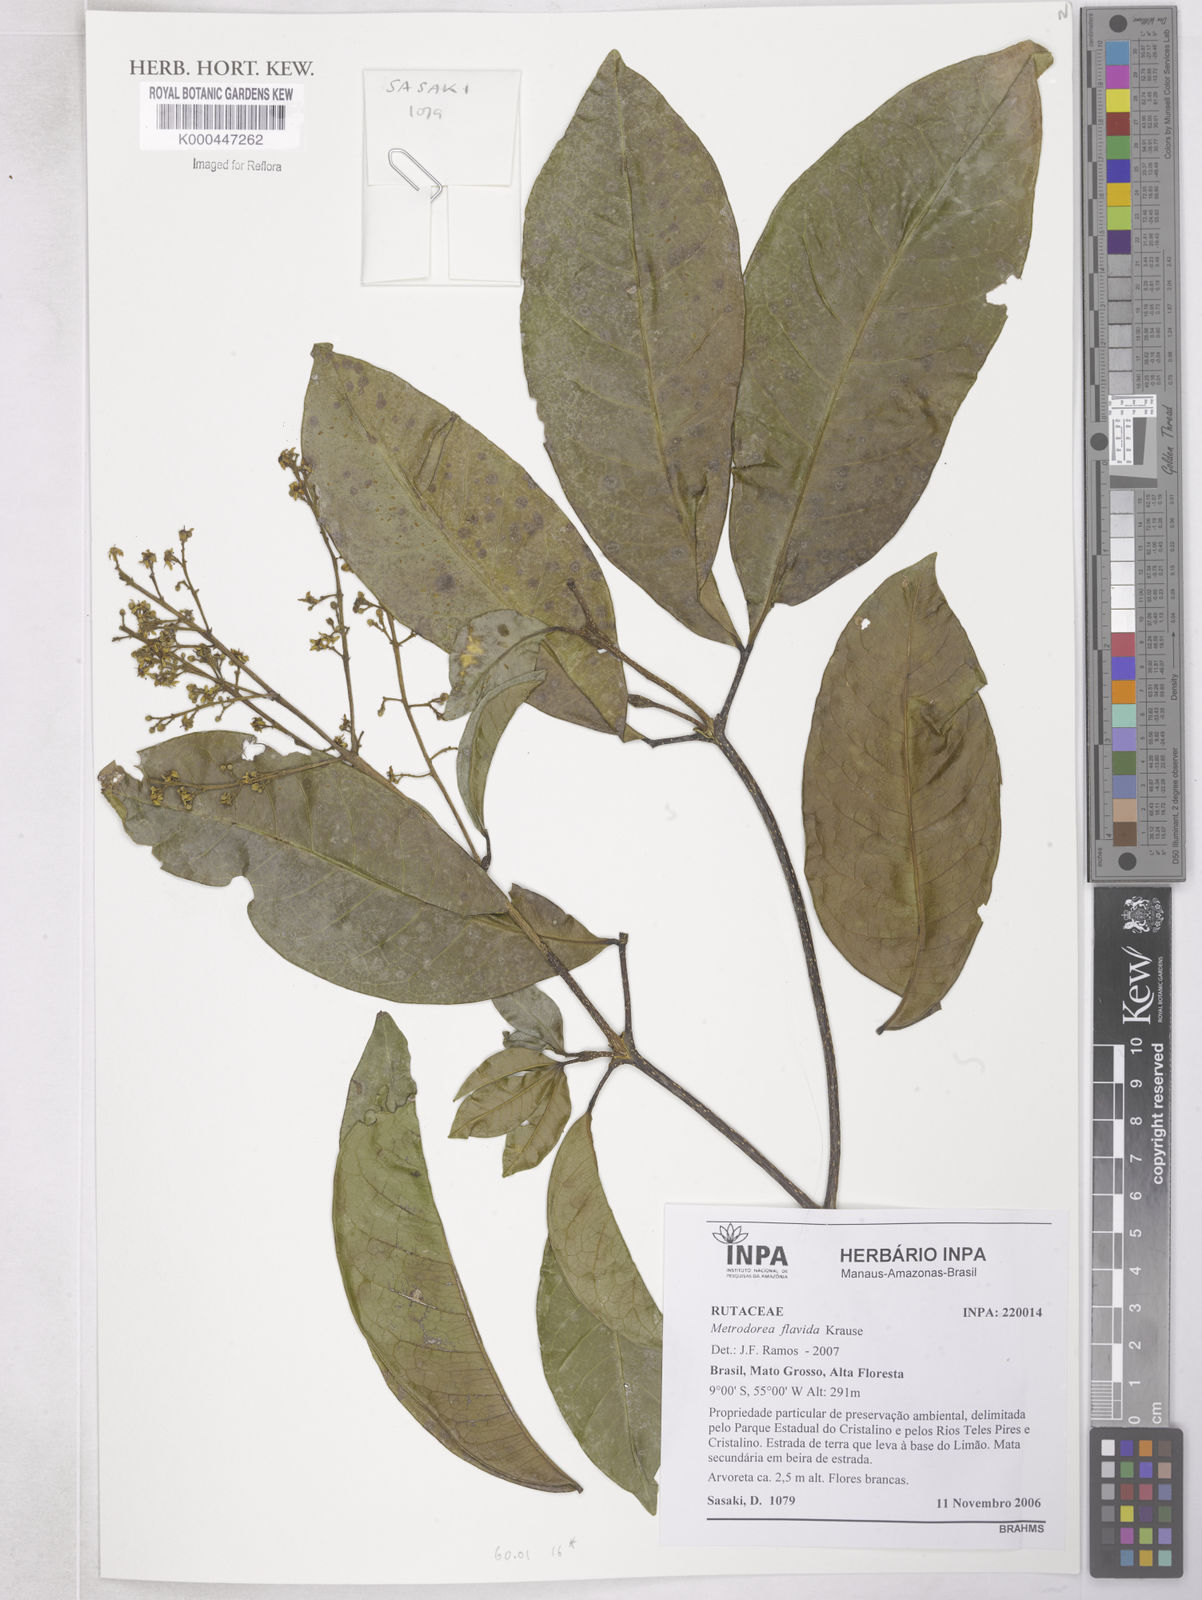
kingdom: Plantae
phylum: Tracheophyta
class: Magnoliopsida
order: Sapindales
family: Rutaceae
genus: Metrodorea
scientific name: Metrodorea flavida
